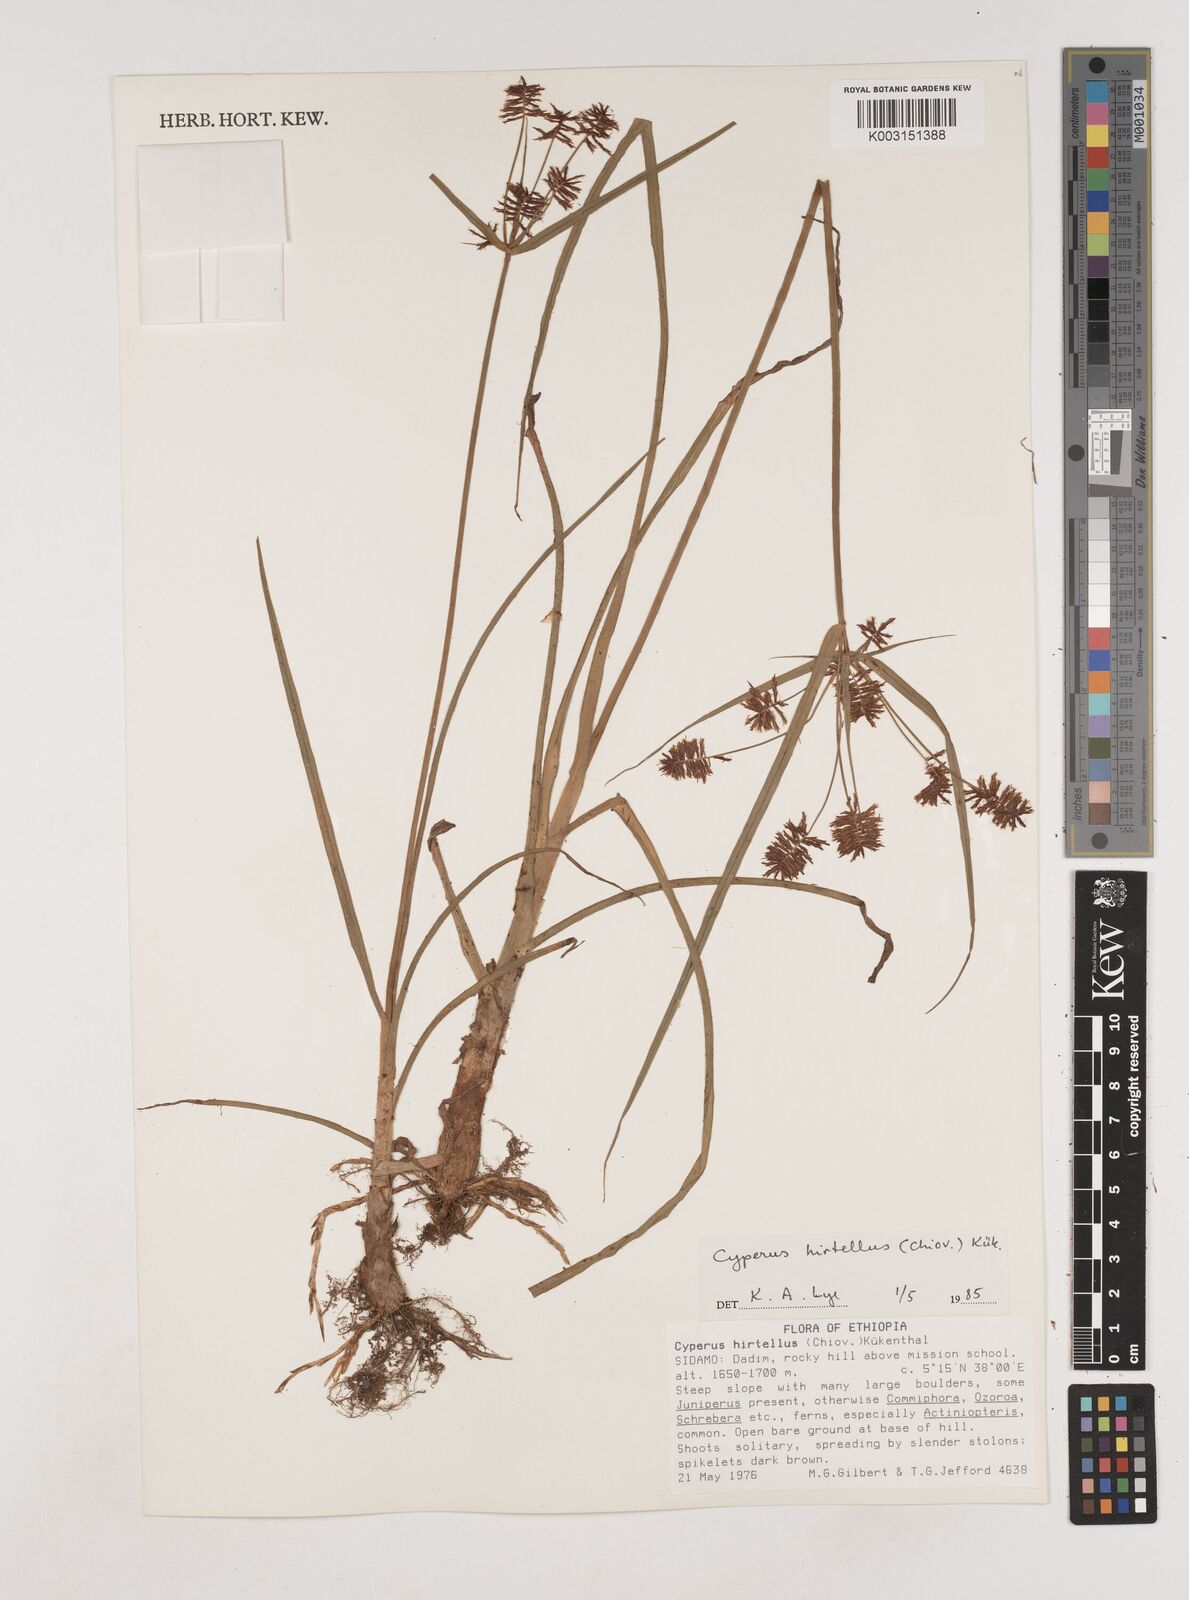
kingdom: Plantae
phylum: Tracheophyta
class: Liliopsida
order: Poales
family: Cyperaceae
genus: Cyperus
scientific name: Cyperus trigonellus
